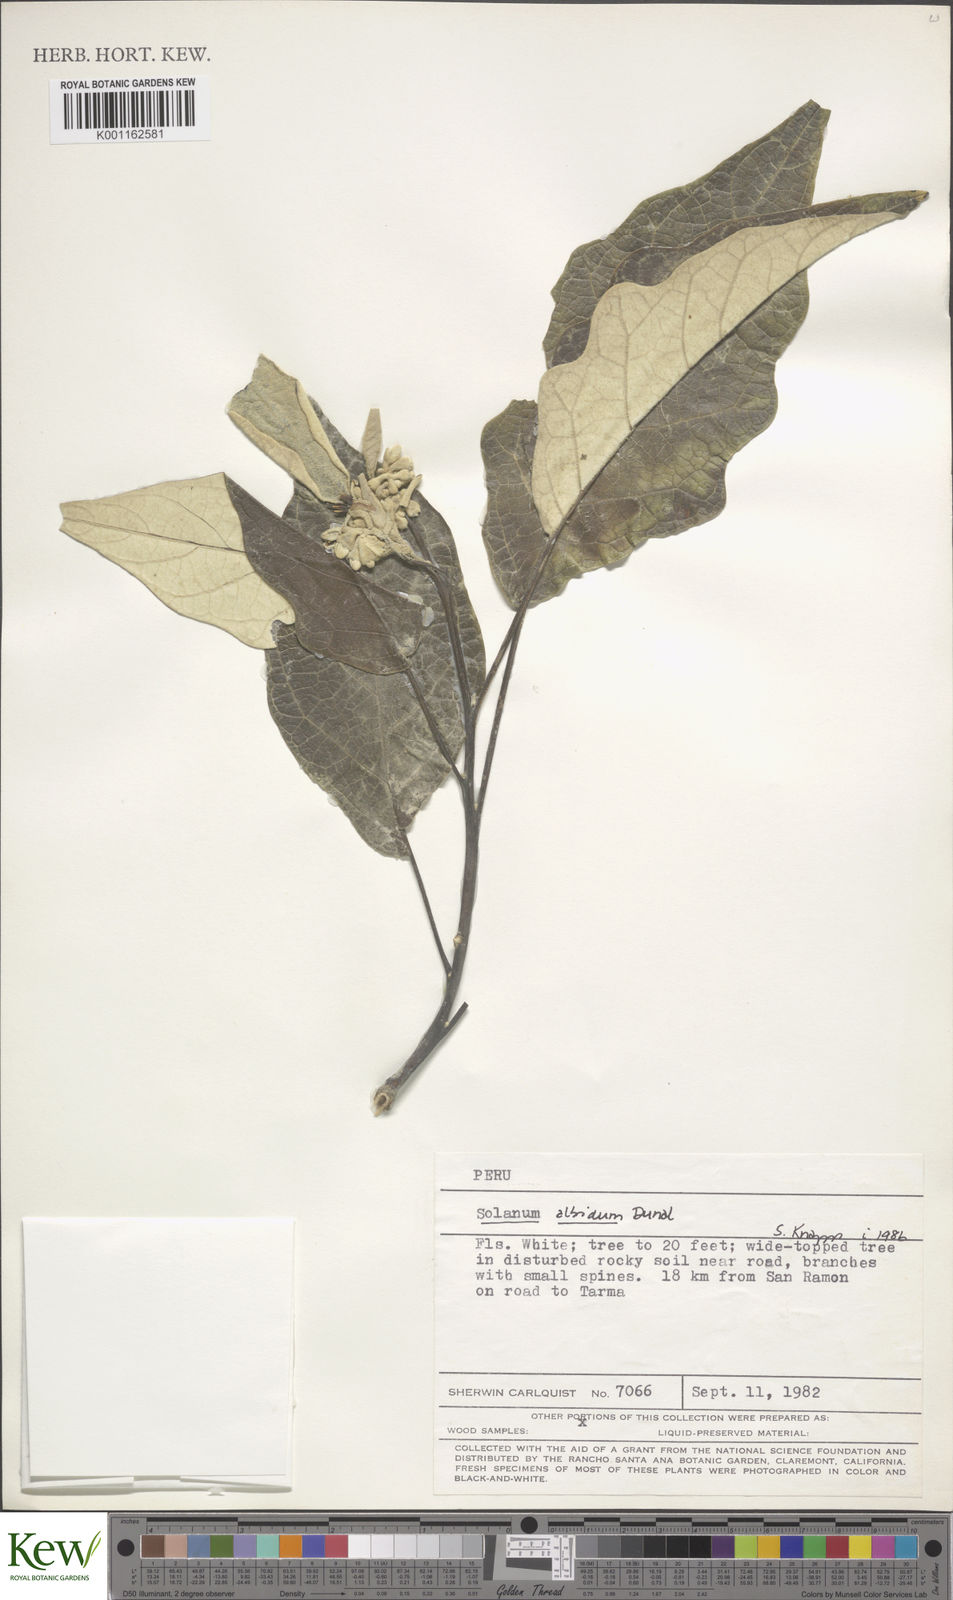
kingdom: Plantae
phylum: Tracheophyta
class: Magnoliopsida
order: Solanales
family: Solanaceae
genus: Solanum
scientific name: Solanum albidum
